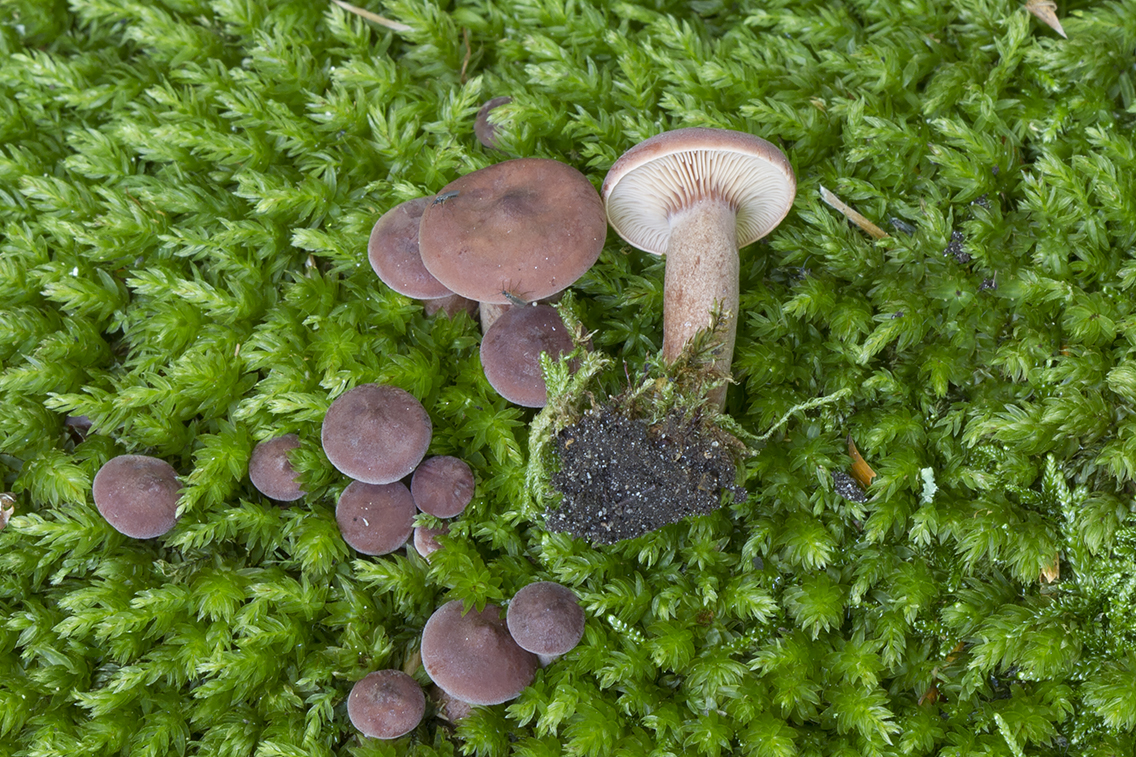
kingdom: Fungi
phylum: Basidiomycota
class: Agaricomycetes
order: Russulales
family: Russulaceae
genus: Lactarius
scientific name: Lactarius camphoratus
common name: kamfer-mælkehat
